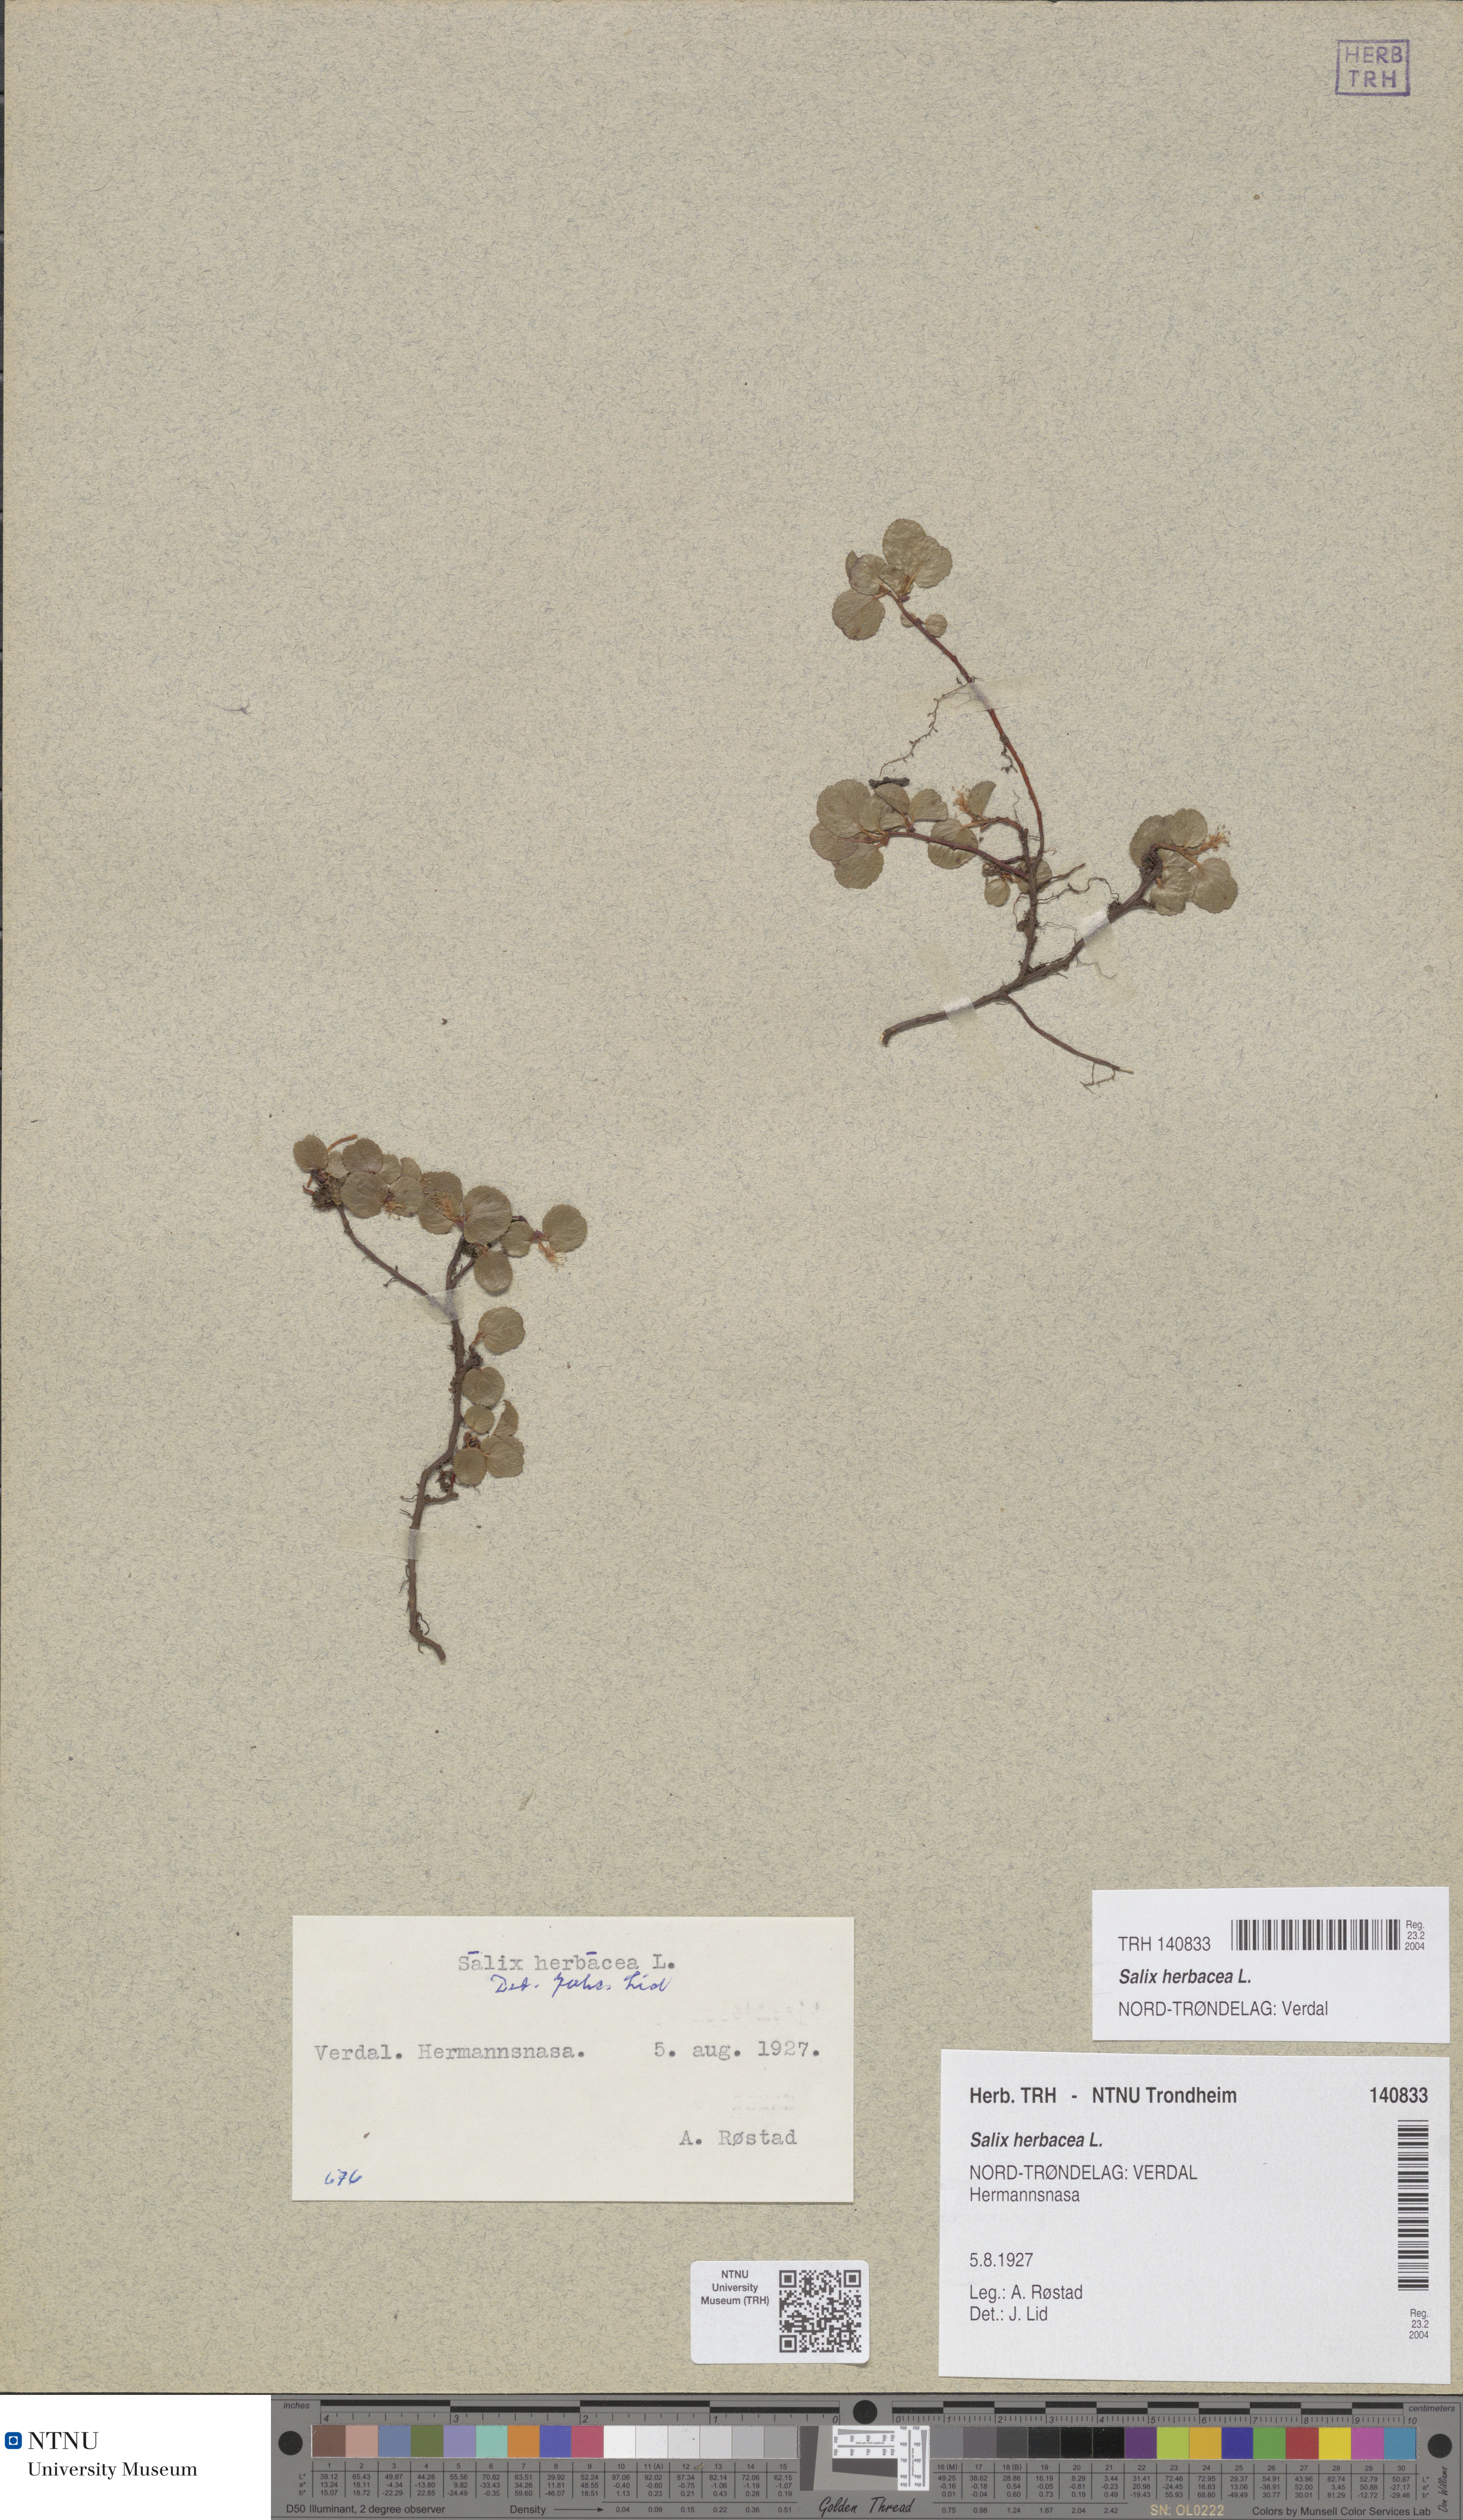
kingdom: Plantae
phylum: Tracheophyta
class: Magnoliopsida
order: Malpighiales
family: Salicaceae
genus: Salix
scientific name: Salix herbacea
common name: Dwarf willow
